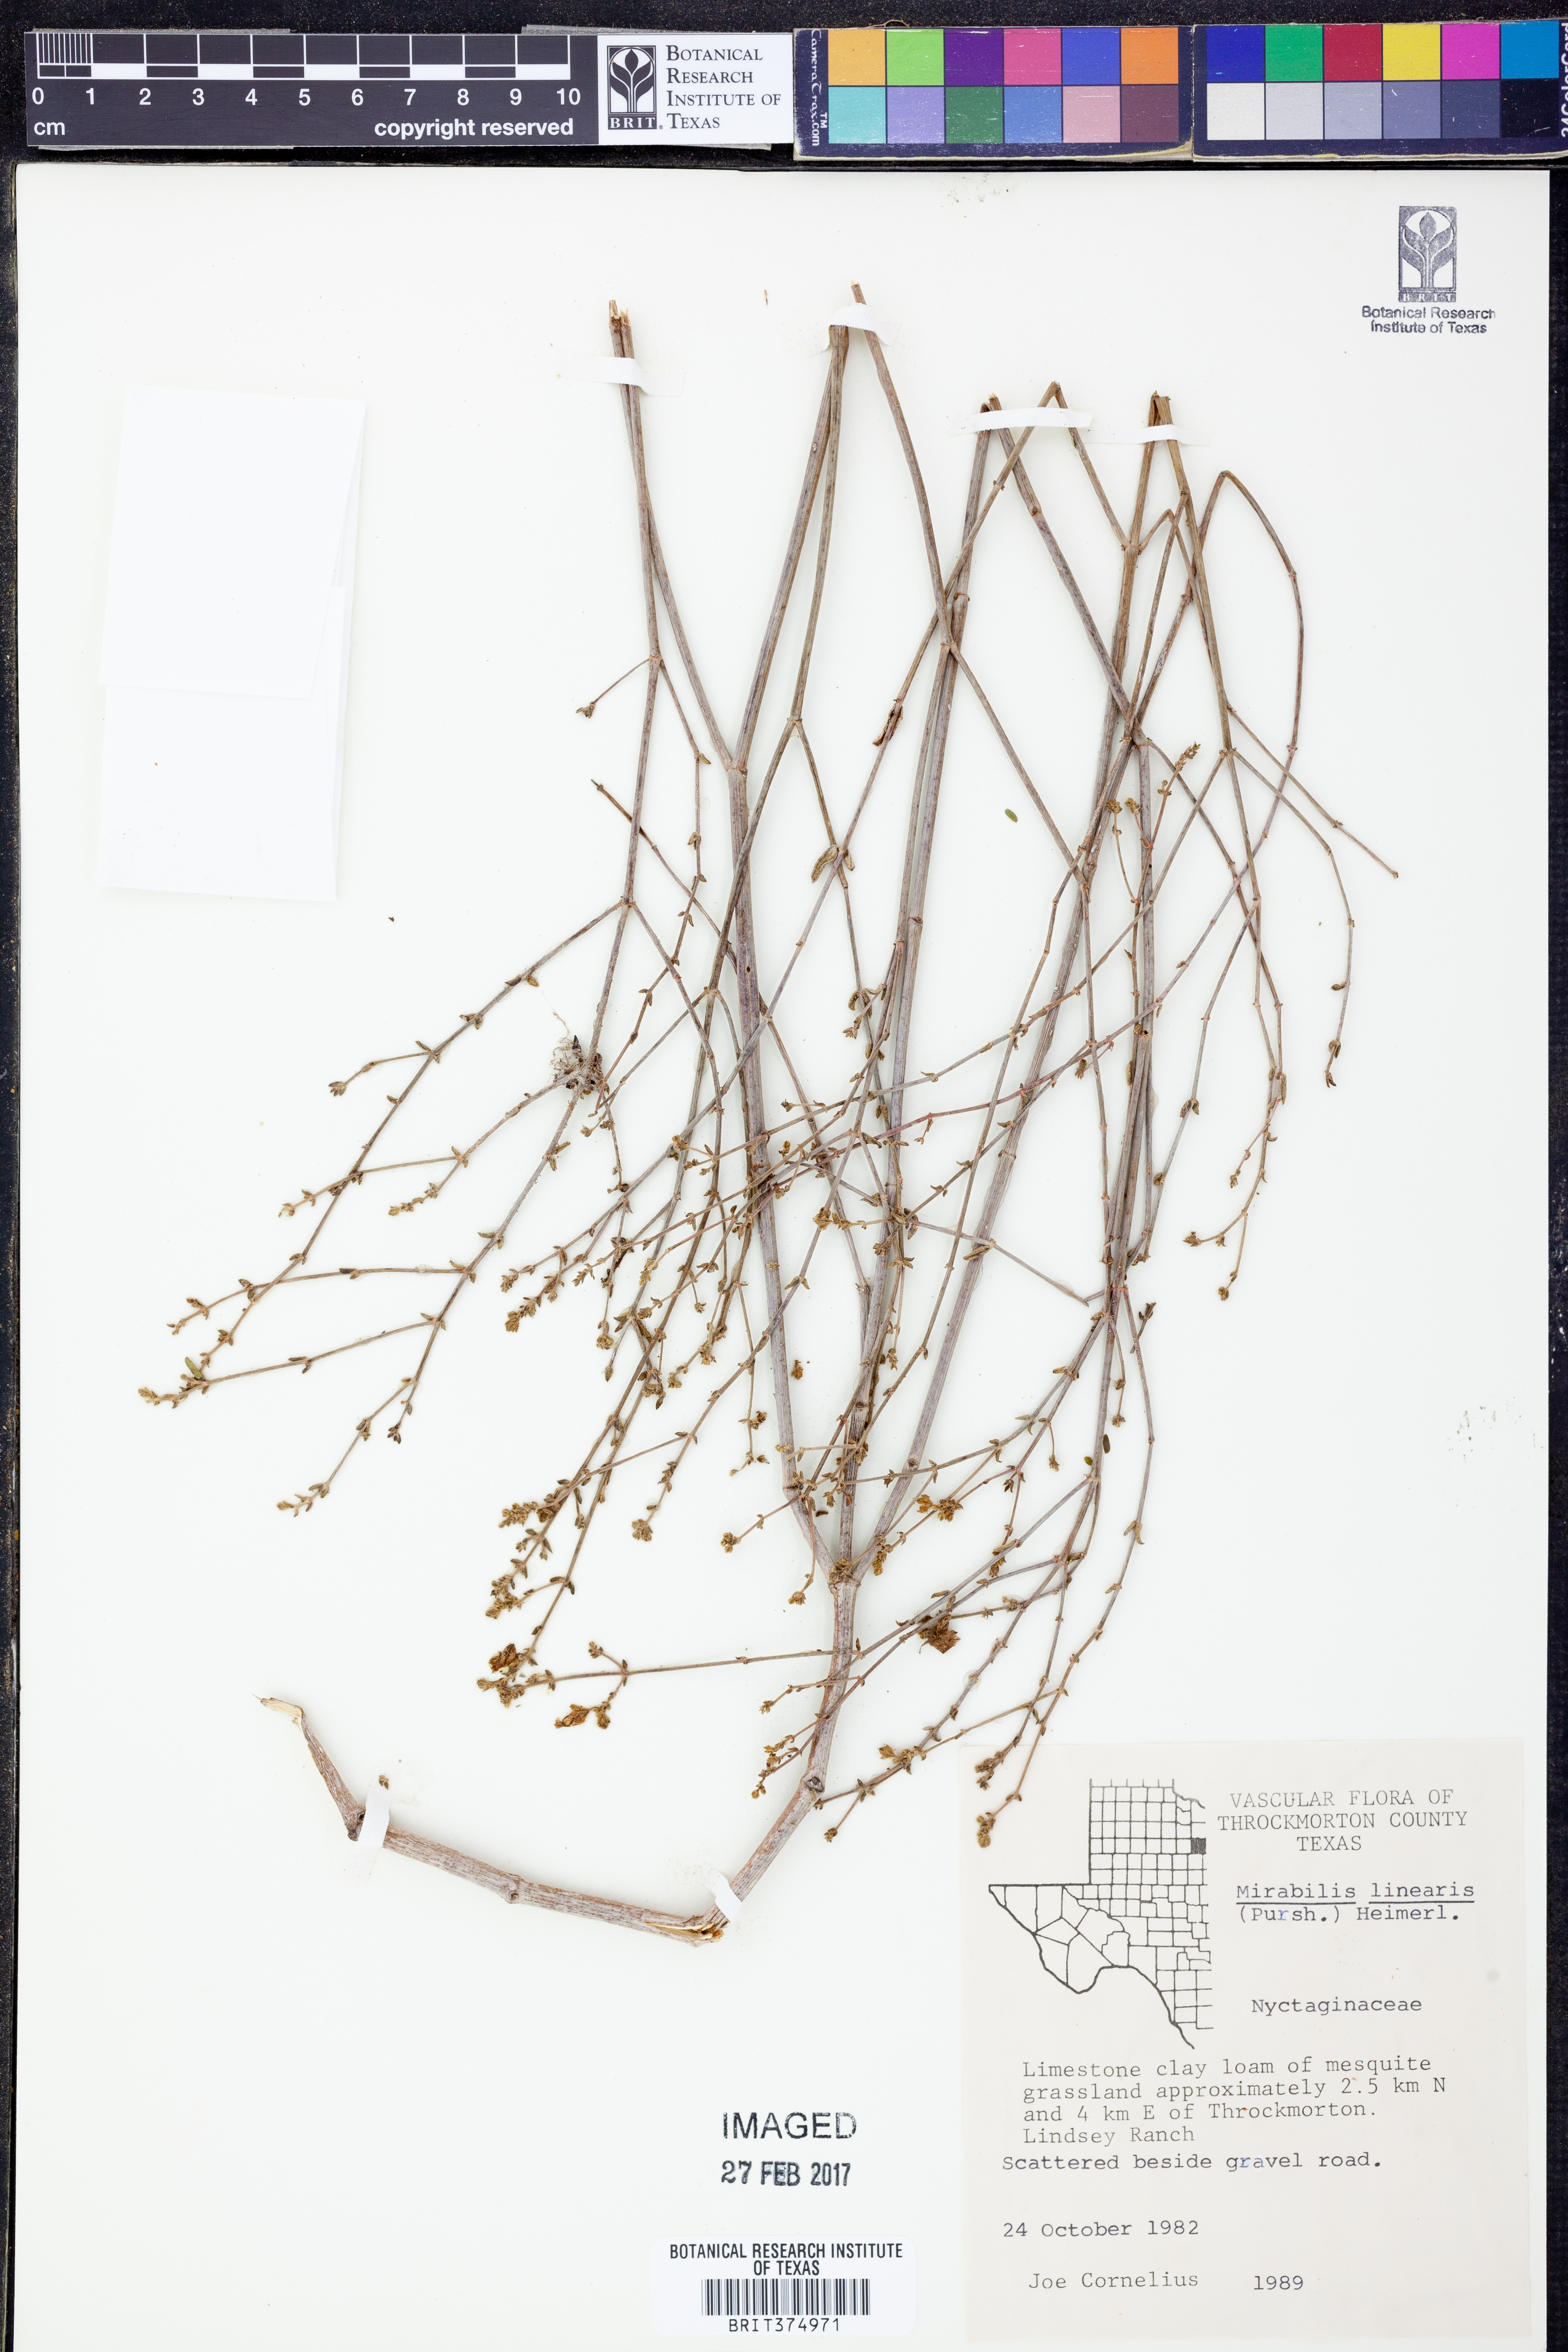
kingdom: Plantae
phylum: Tracheophyta
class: Magnoliopsida
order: Caryophyllales
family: Nyctaginaceae
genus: Mirabilis
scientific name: Mirabilis linearis
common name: Linear-leaved four-o'clock
